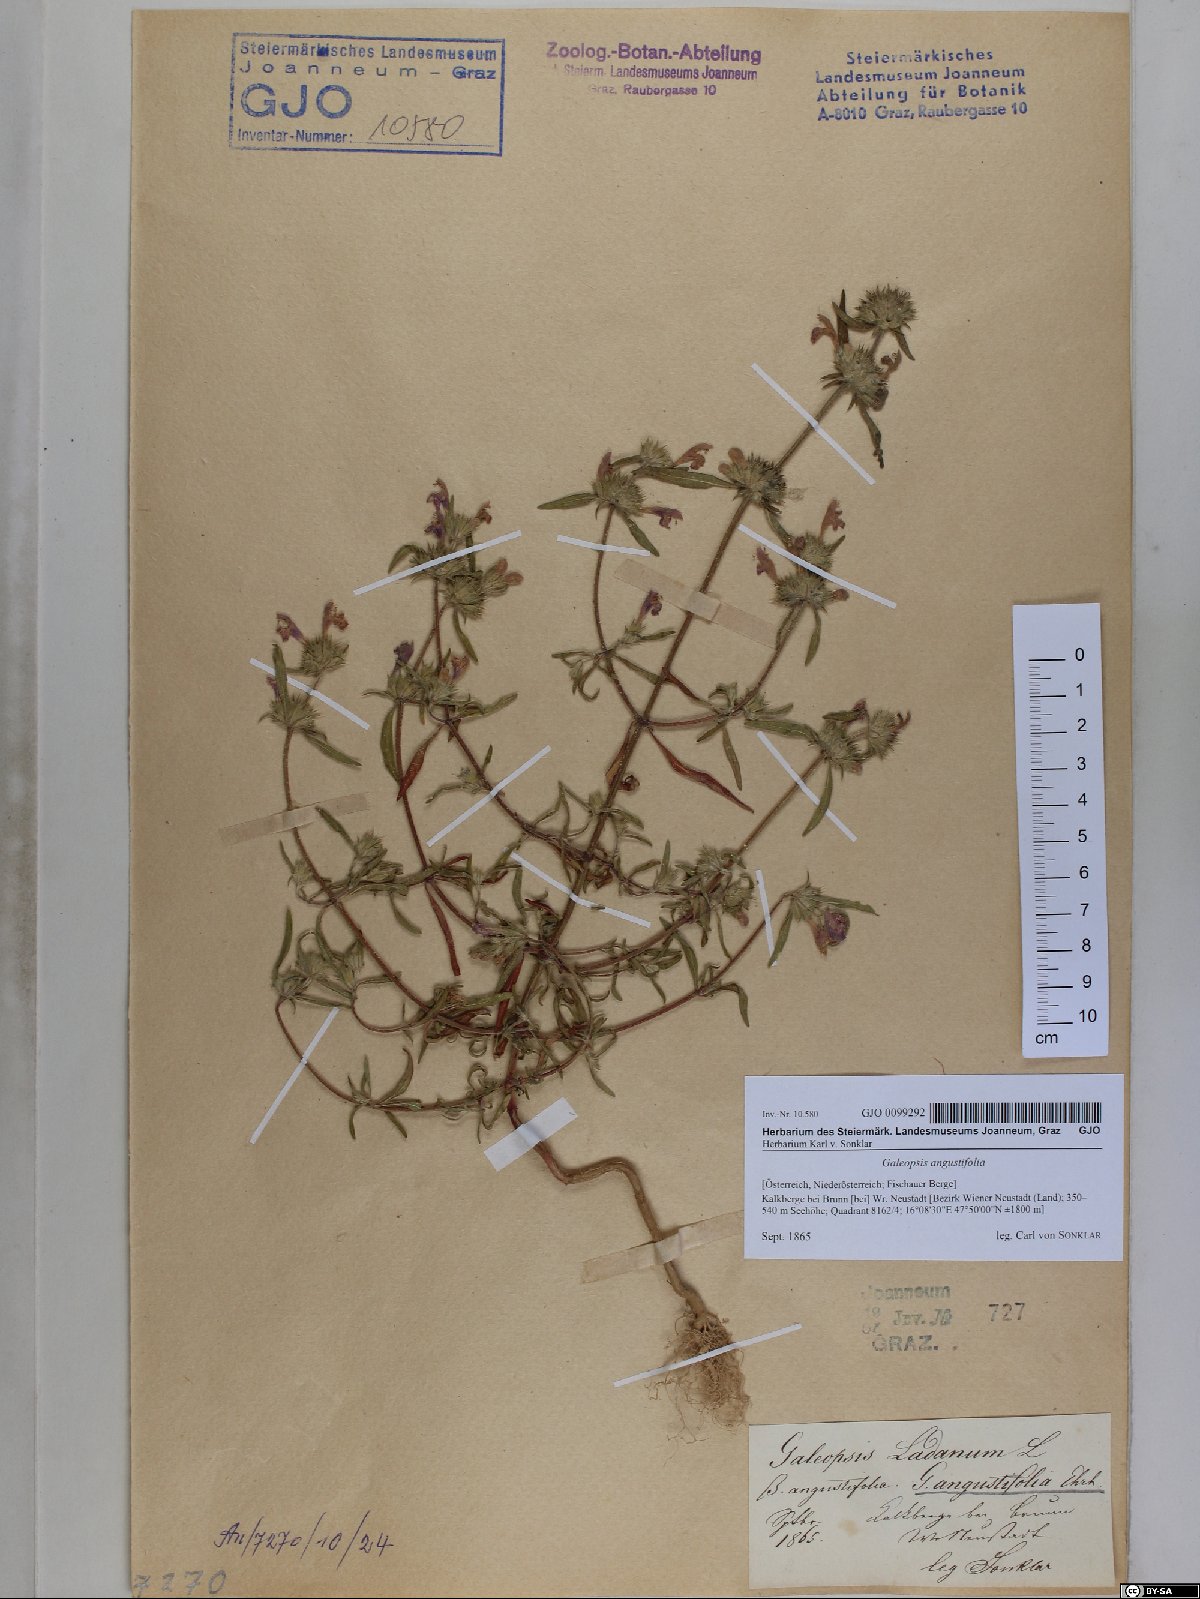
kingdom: Plantae
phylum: Tracheophyta
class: Magnoliopsida
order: Lamiales
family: Lamiaceae
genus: Galeopsis
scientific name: Galeopsis angustifolia
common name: Red hemp-nettle
